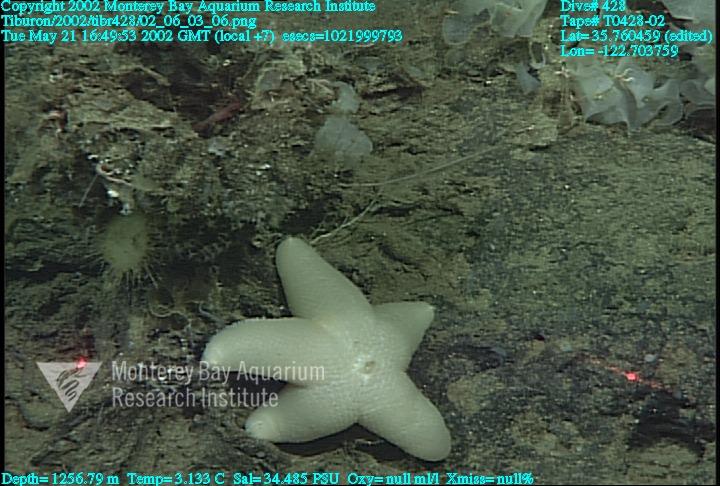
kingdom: Animalia
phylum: Porifera
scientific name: Porifera
